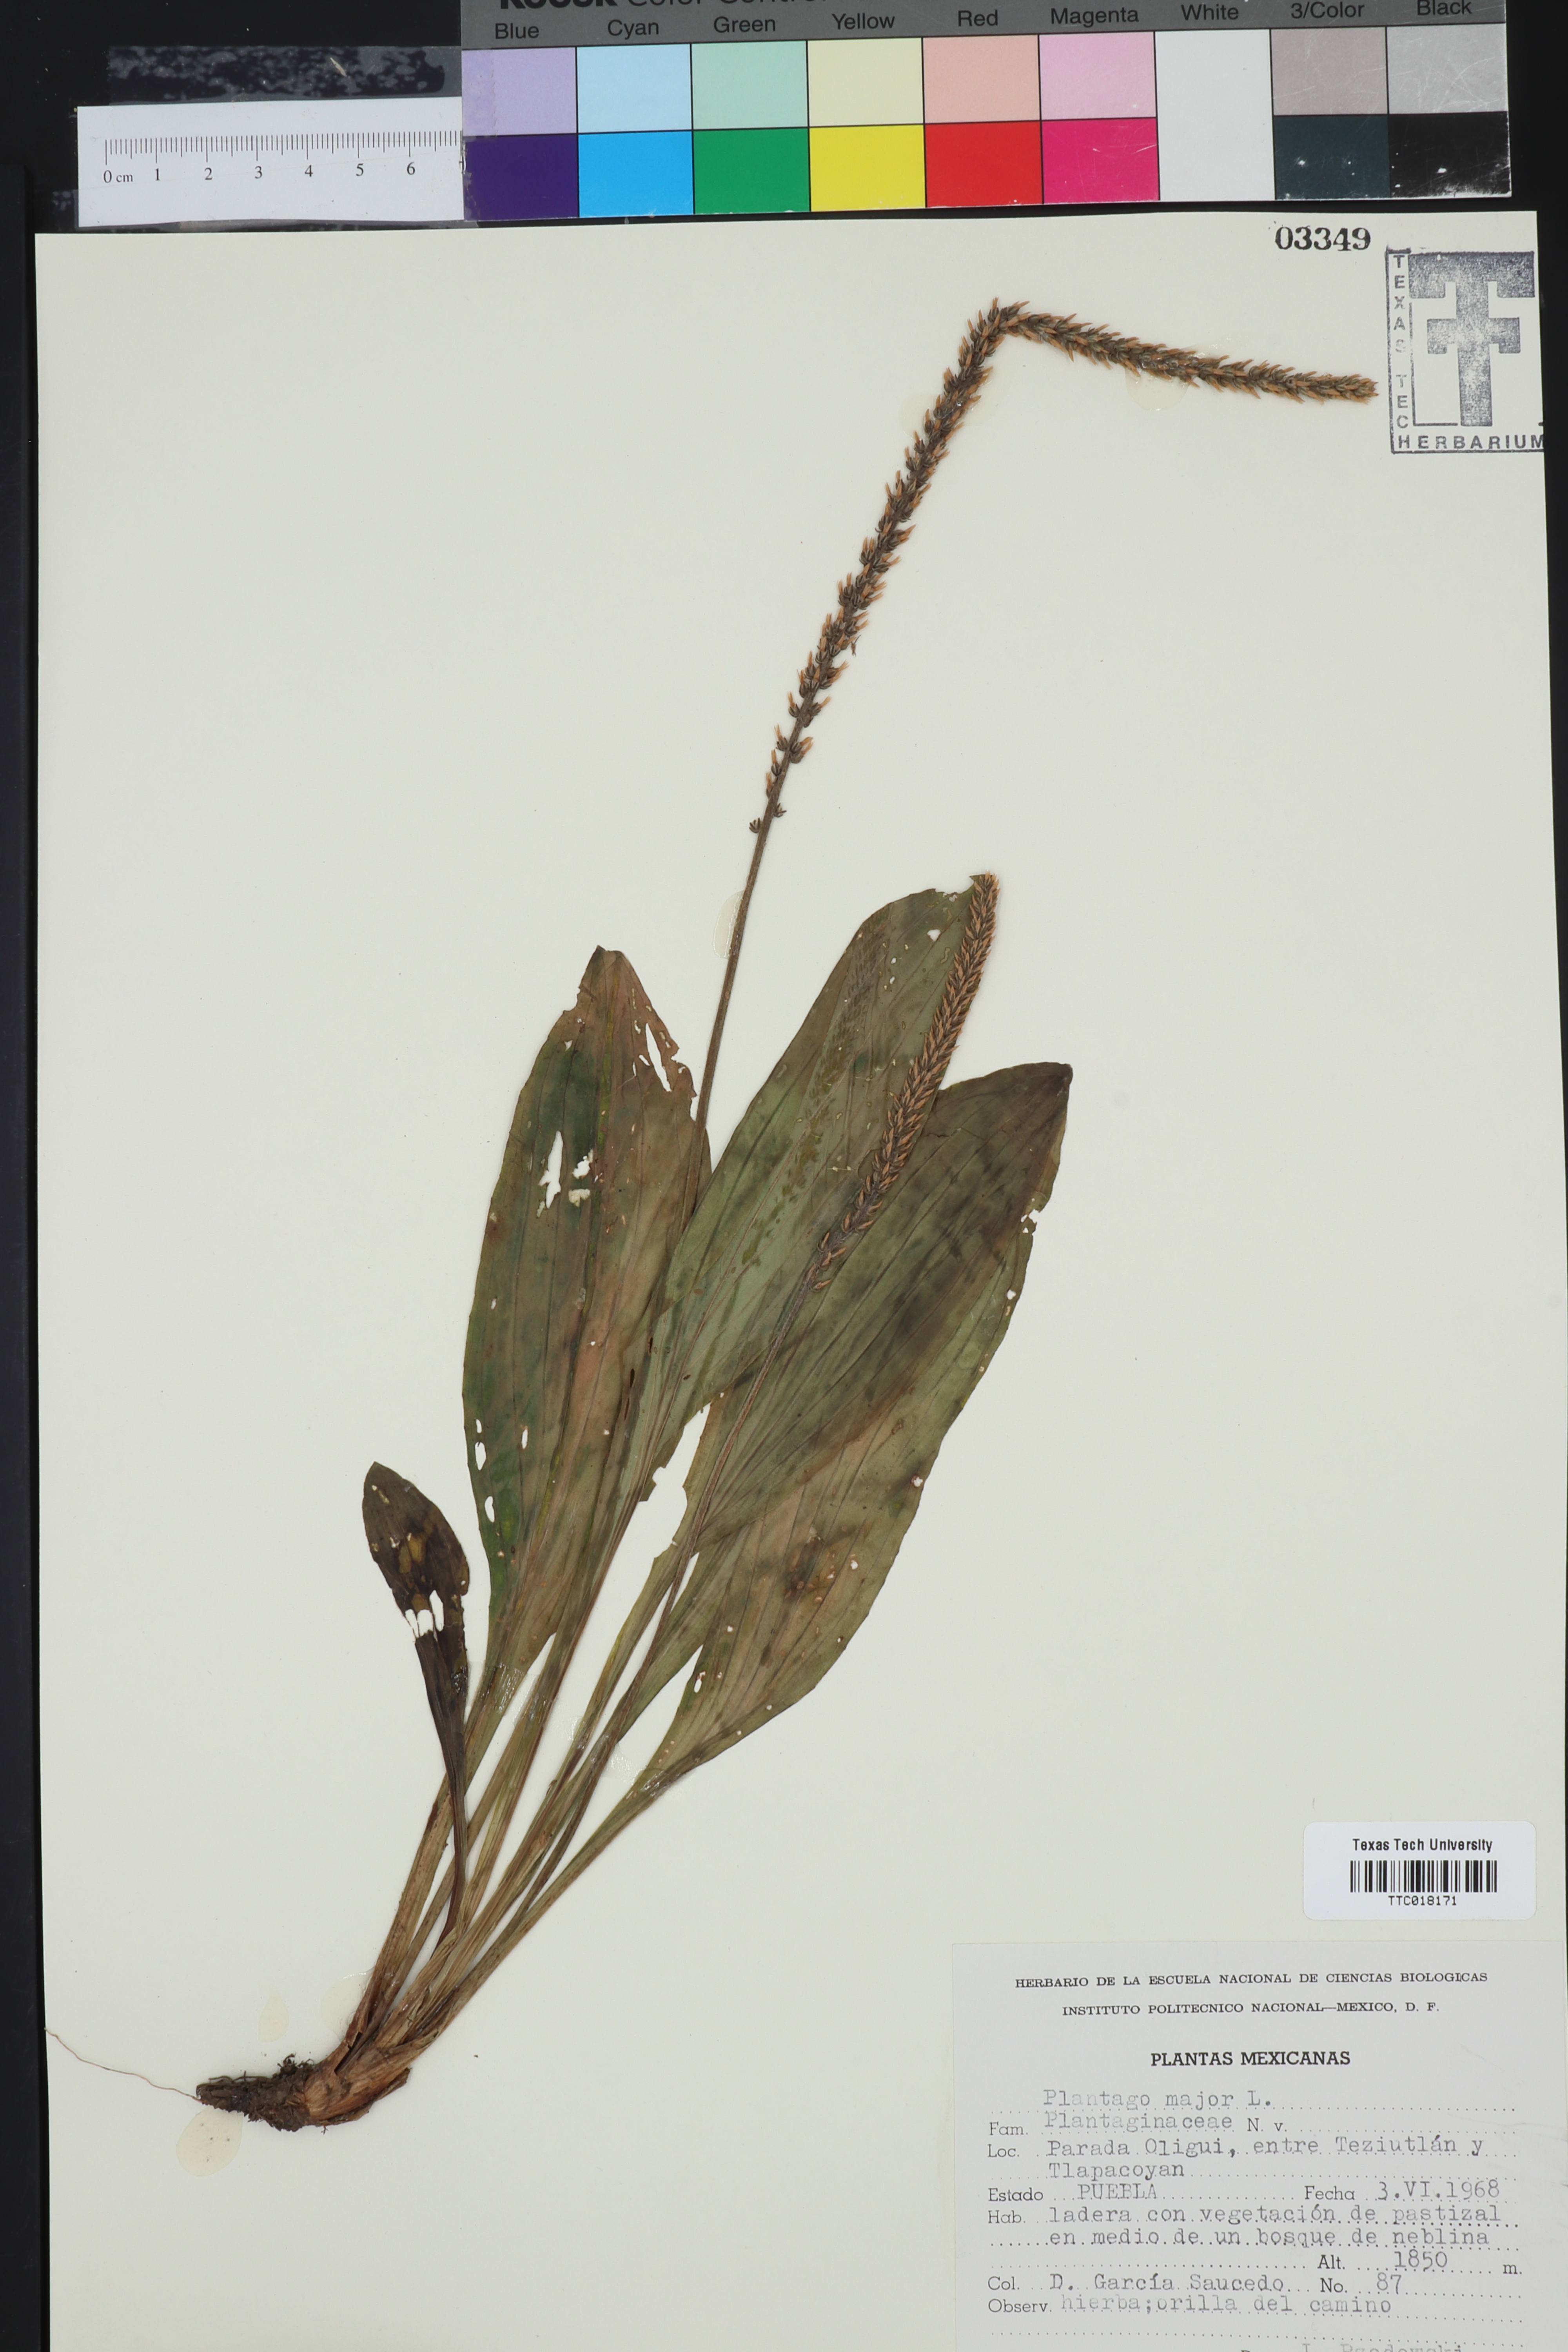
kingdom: Plantae
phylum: Tracheophyta
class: Magnoliopsida
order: Lamiales
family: Plantaginaceae
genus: Plantago
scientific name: Plantago major
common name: Common plantain
